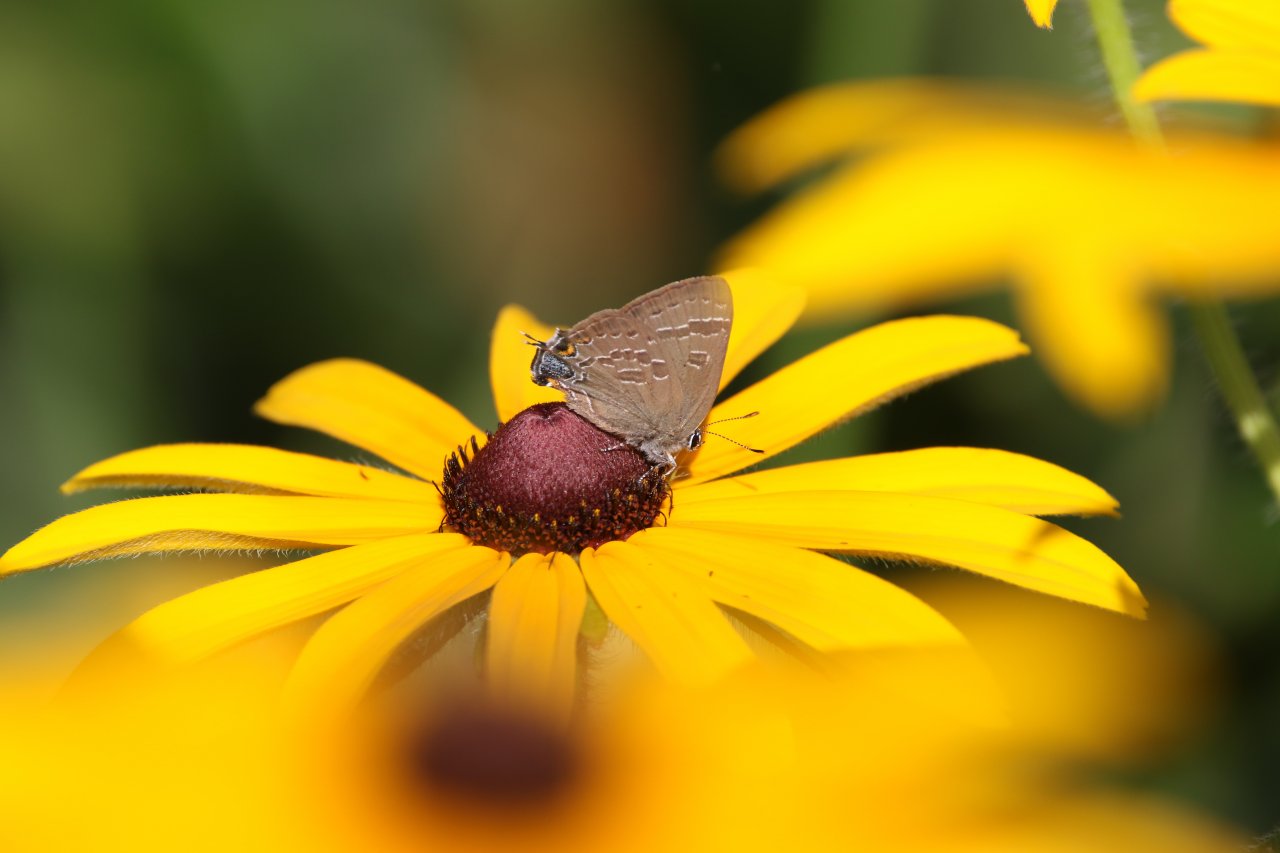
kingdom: Animalia
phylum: Arthropoda
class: Insecta
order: Lepidoptera
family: Lycaenidae
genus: Strymon
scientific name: Strymon caryaevorus
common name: Hickory Hairstreak
